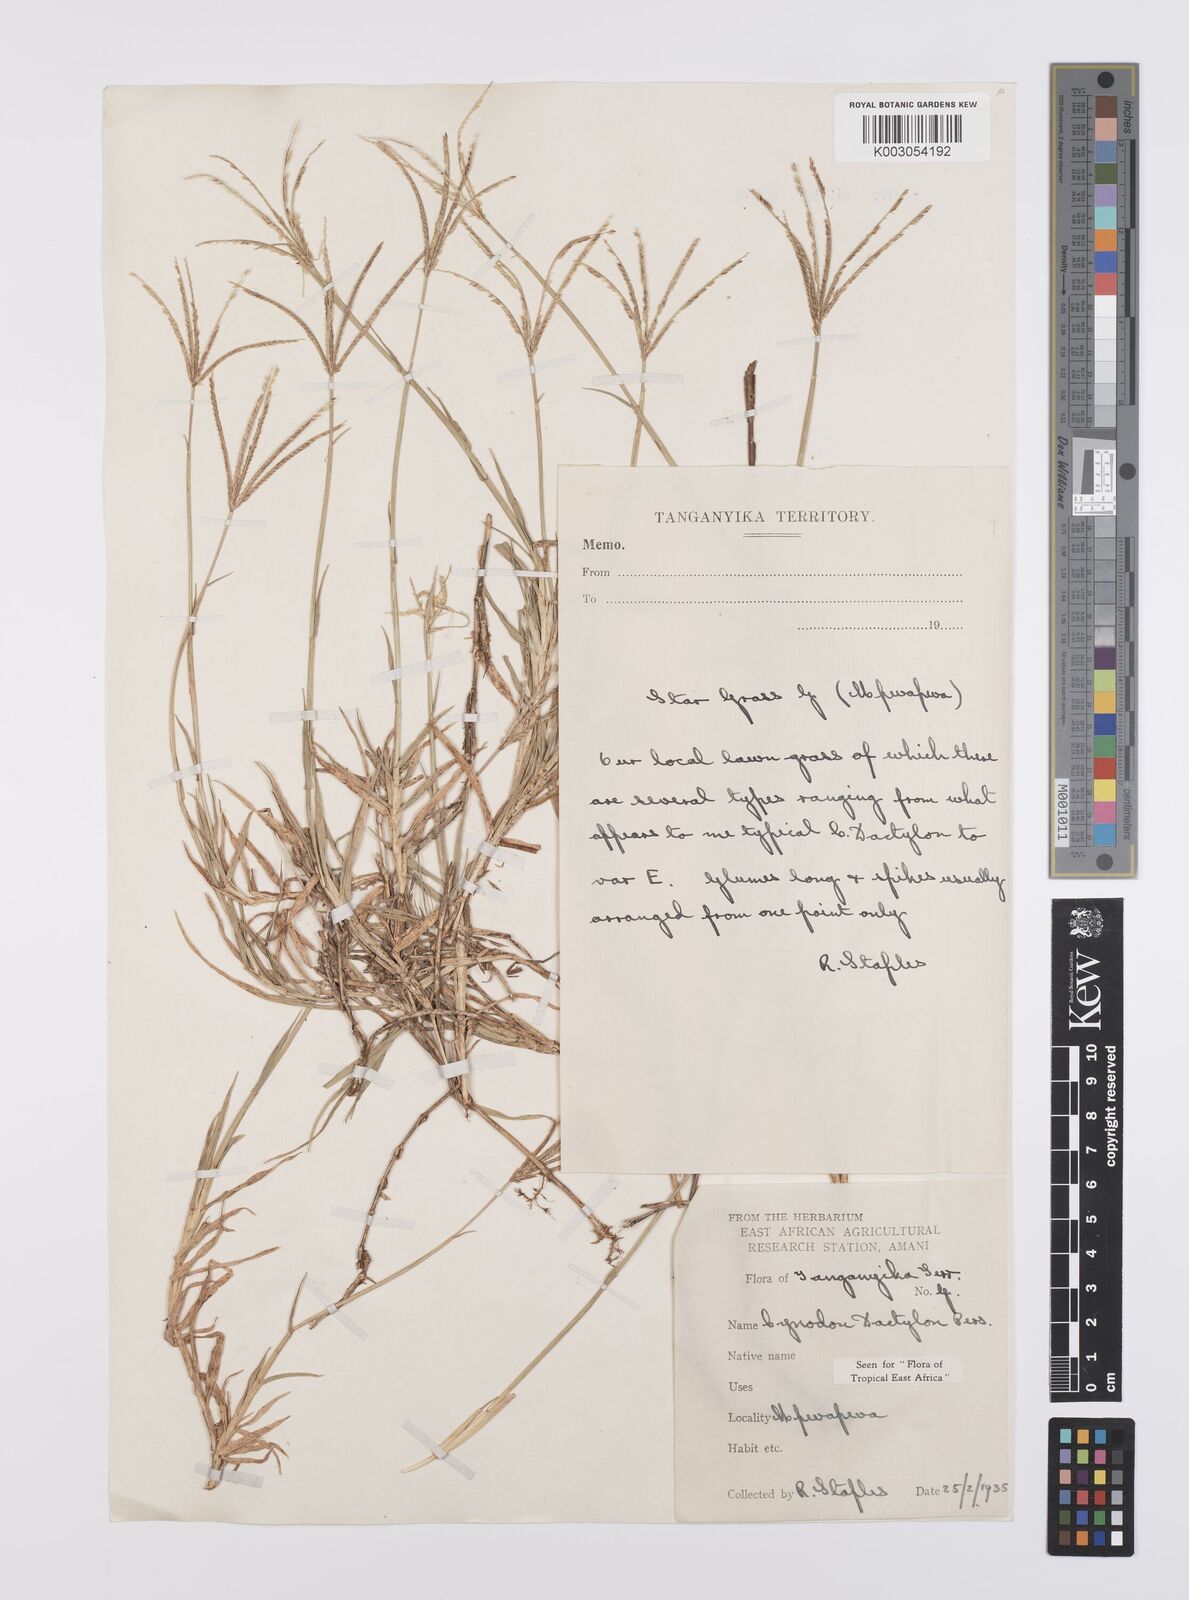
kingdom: Plantae
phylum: Tracheophyta
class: Liliopsida
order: Poales
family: Poaceae
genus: Cynodon
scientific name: Cynodon dactylon
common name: Bermuda grass
